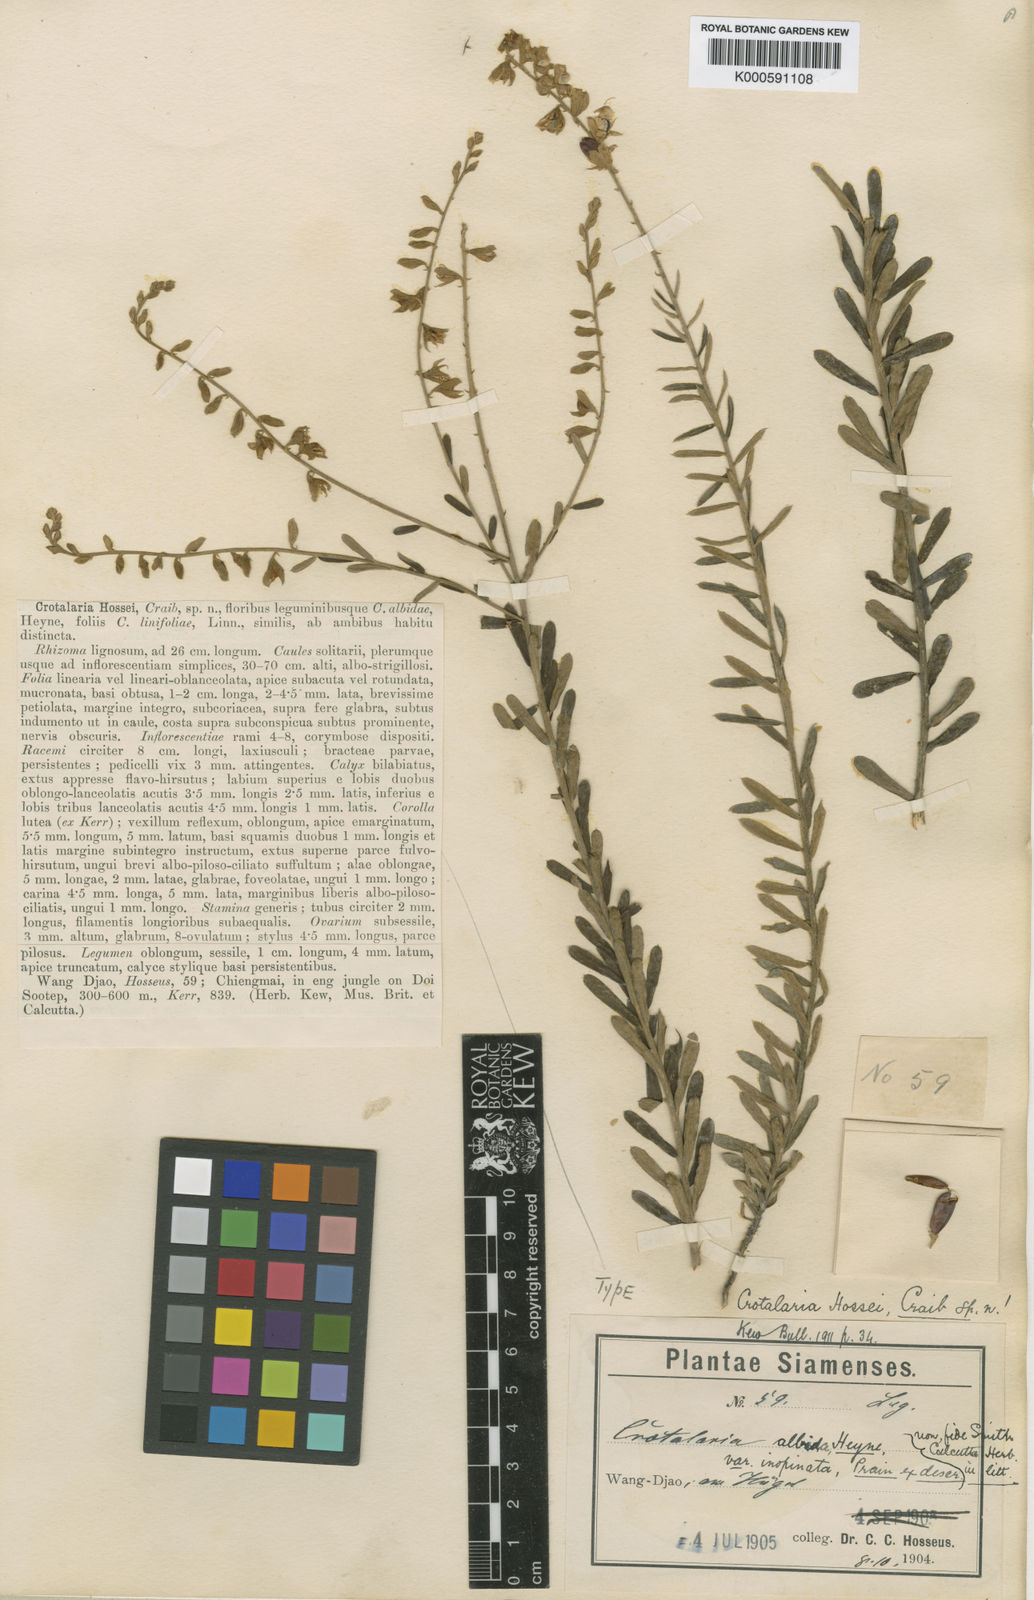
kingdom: Plantae
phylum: Tracheophyta
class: Magnoliopsida
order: Fabales
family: Fabaceae
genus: Crotalaria
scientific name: Crotalaria albida
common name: Taiwan crotalaria
